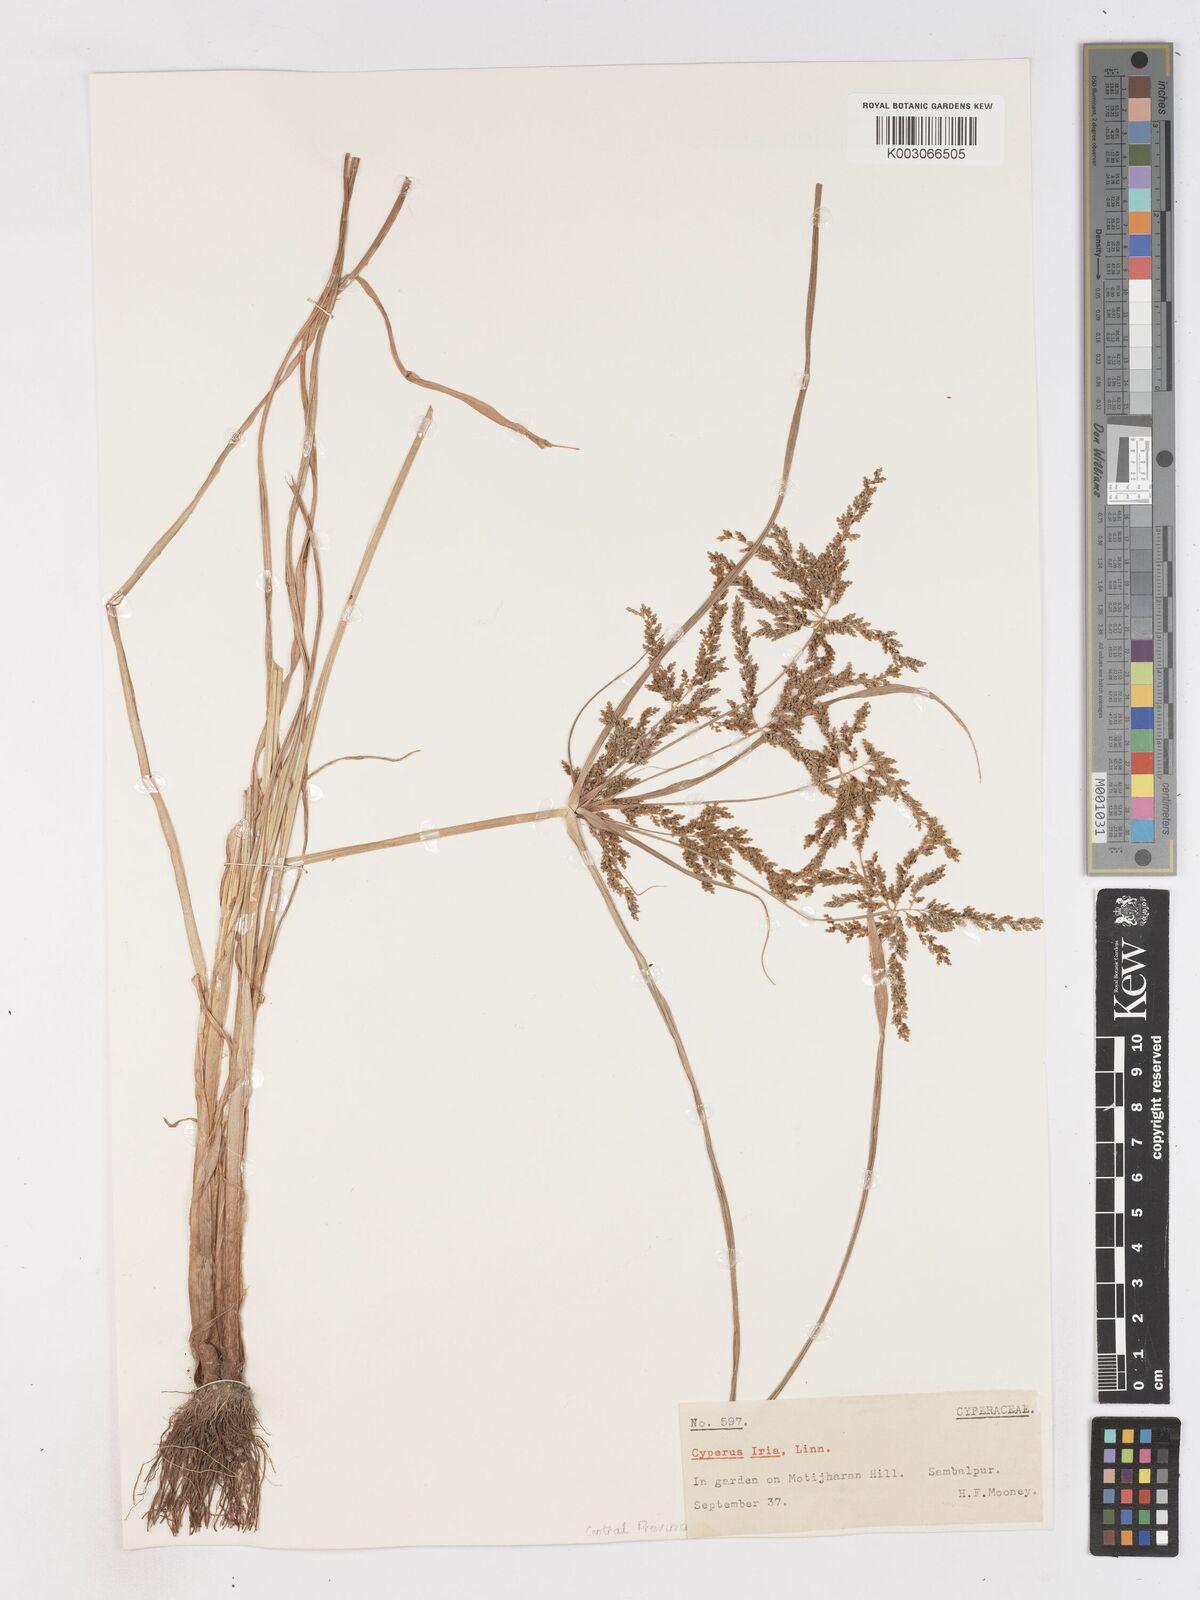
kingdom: Plantae
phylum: Tracheophyta
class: Liliopsida
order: Poales
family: Cyperaceae
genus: Cyperus
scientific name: Cyperus iria
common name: Ricefield flatsedge
